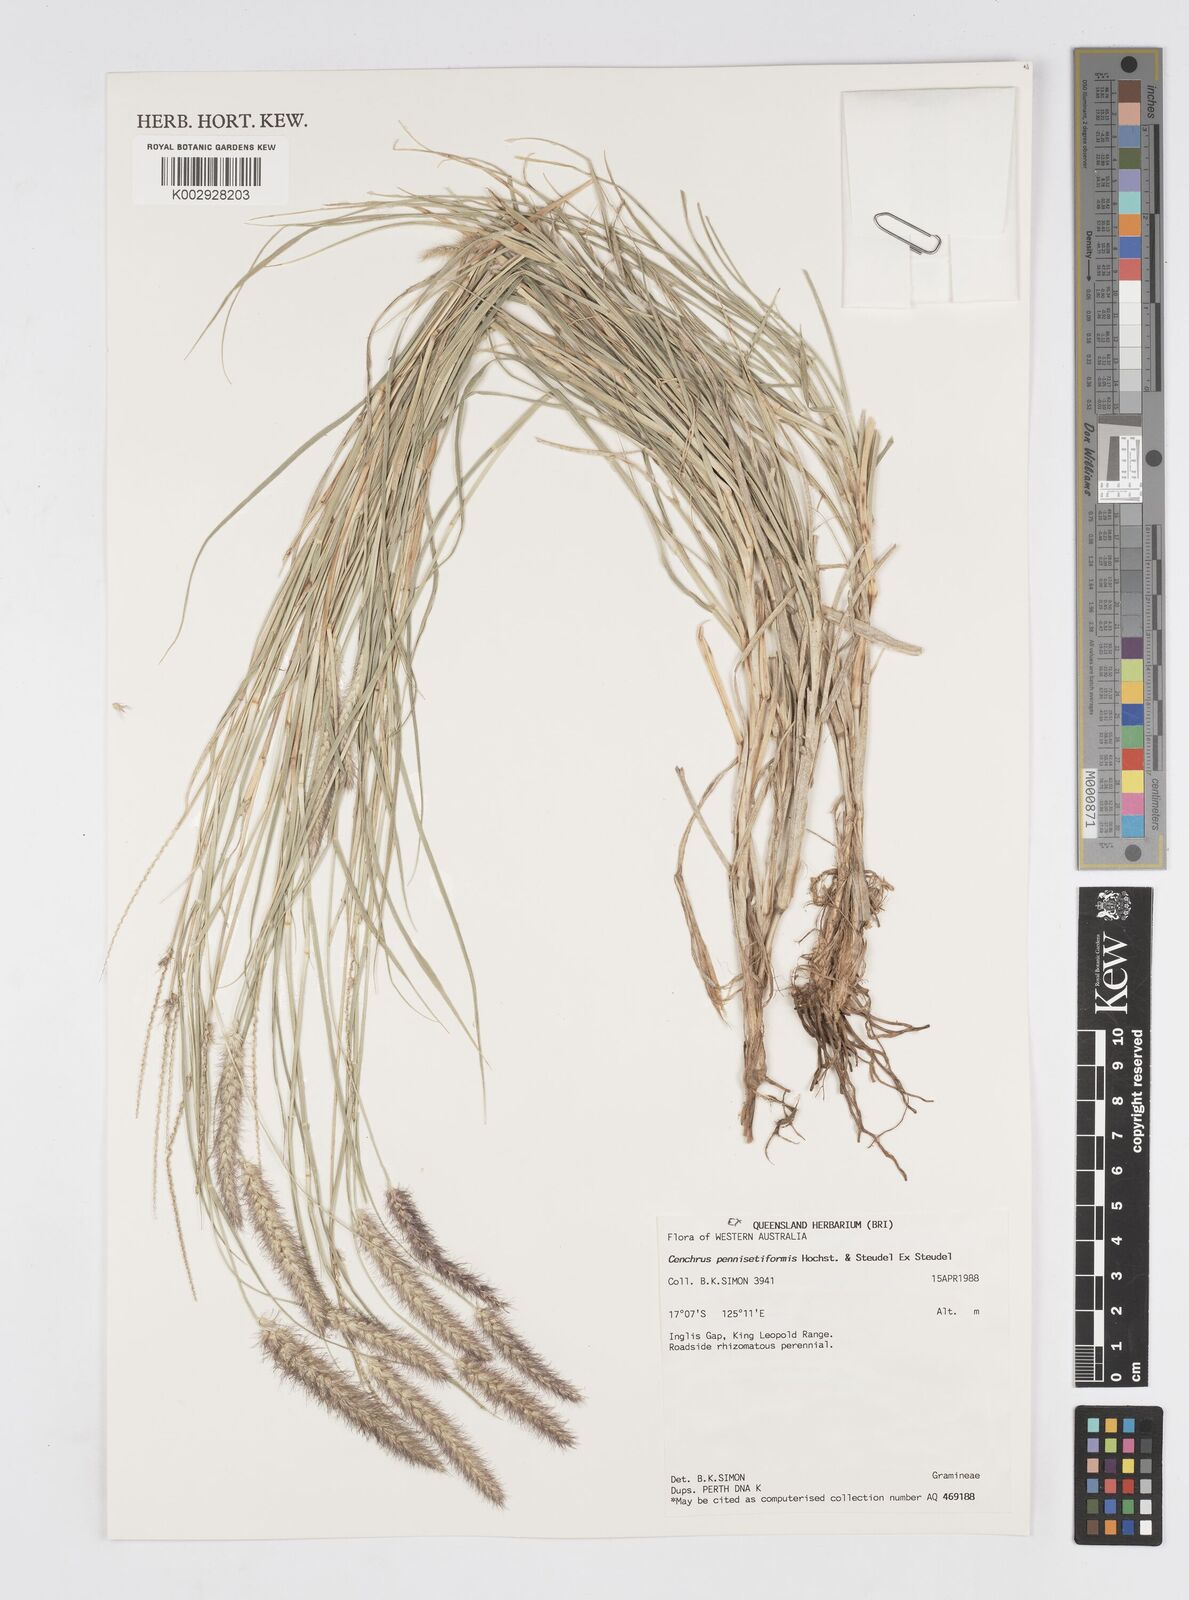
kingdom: Plantae
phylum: Tracheophyta
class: Liliopsida
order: Poales
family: Poaceae
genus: Cenchrus
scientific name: Cenchrus pennisetiformis
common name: Cloncurry
